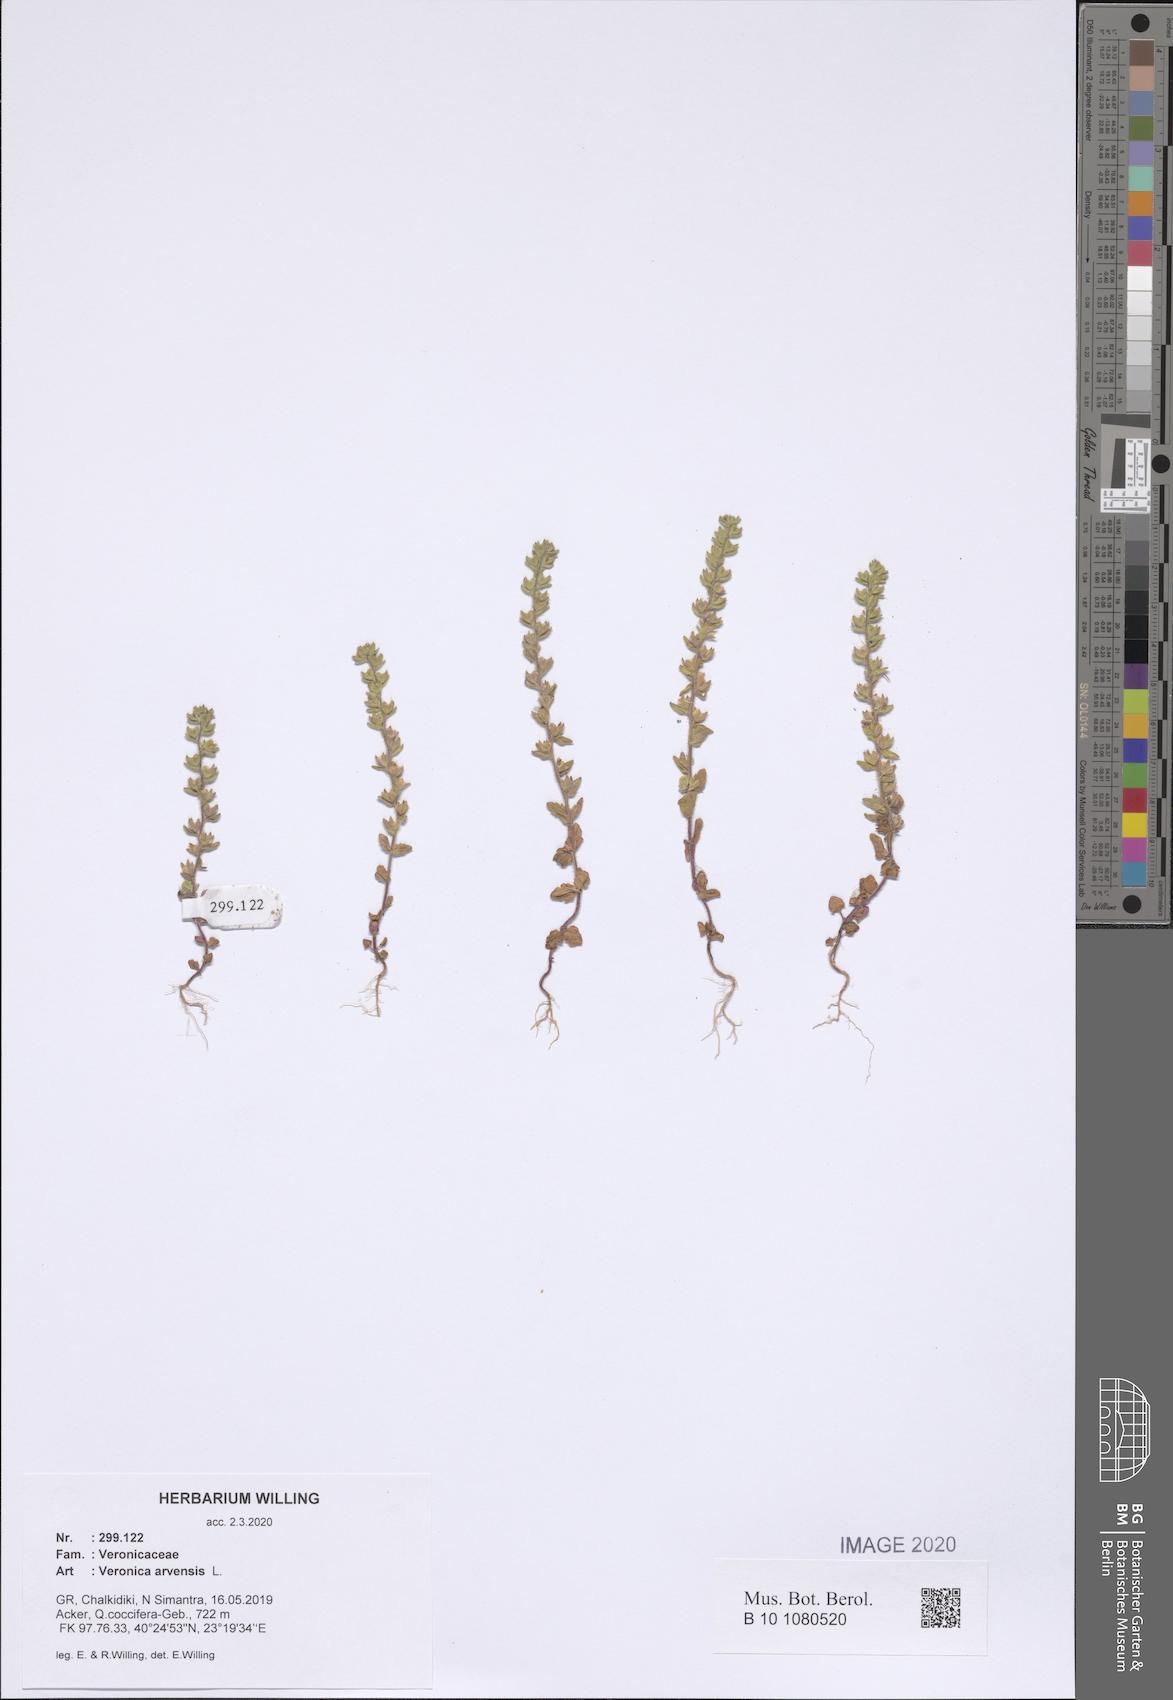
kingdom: Plantae
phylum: Tracheophyta
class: Magnoliopsida
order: Lamiales
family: Plantaginaceae
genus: Veronica
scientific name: Veronica arvensis
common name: Corn speedwell
